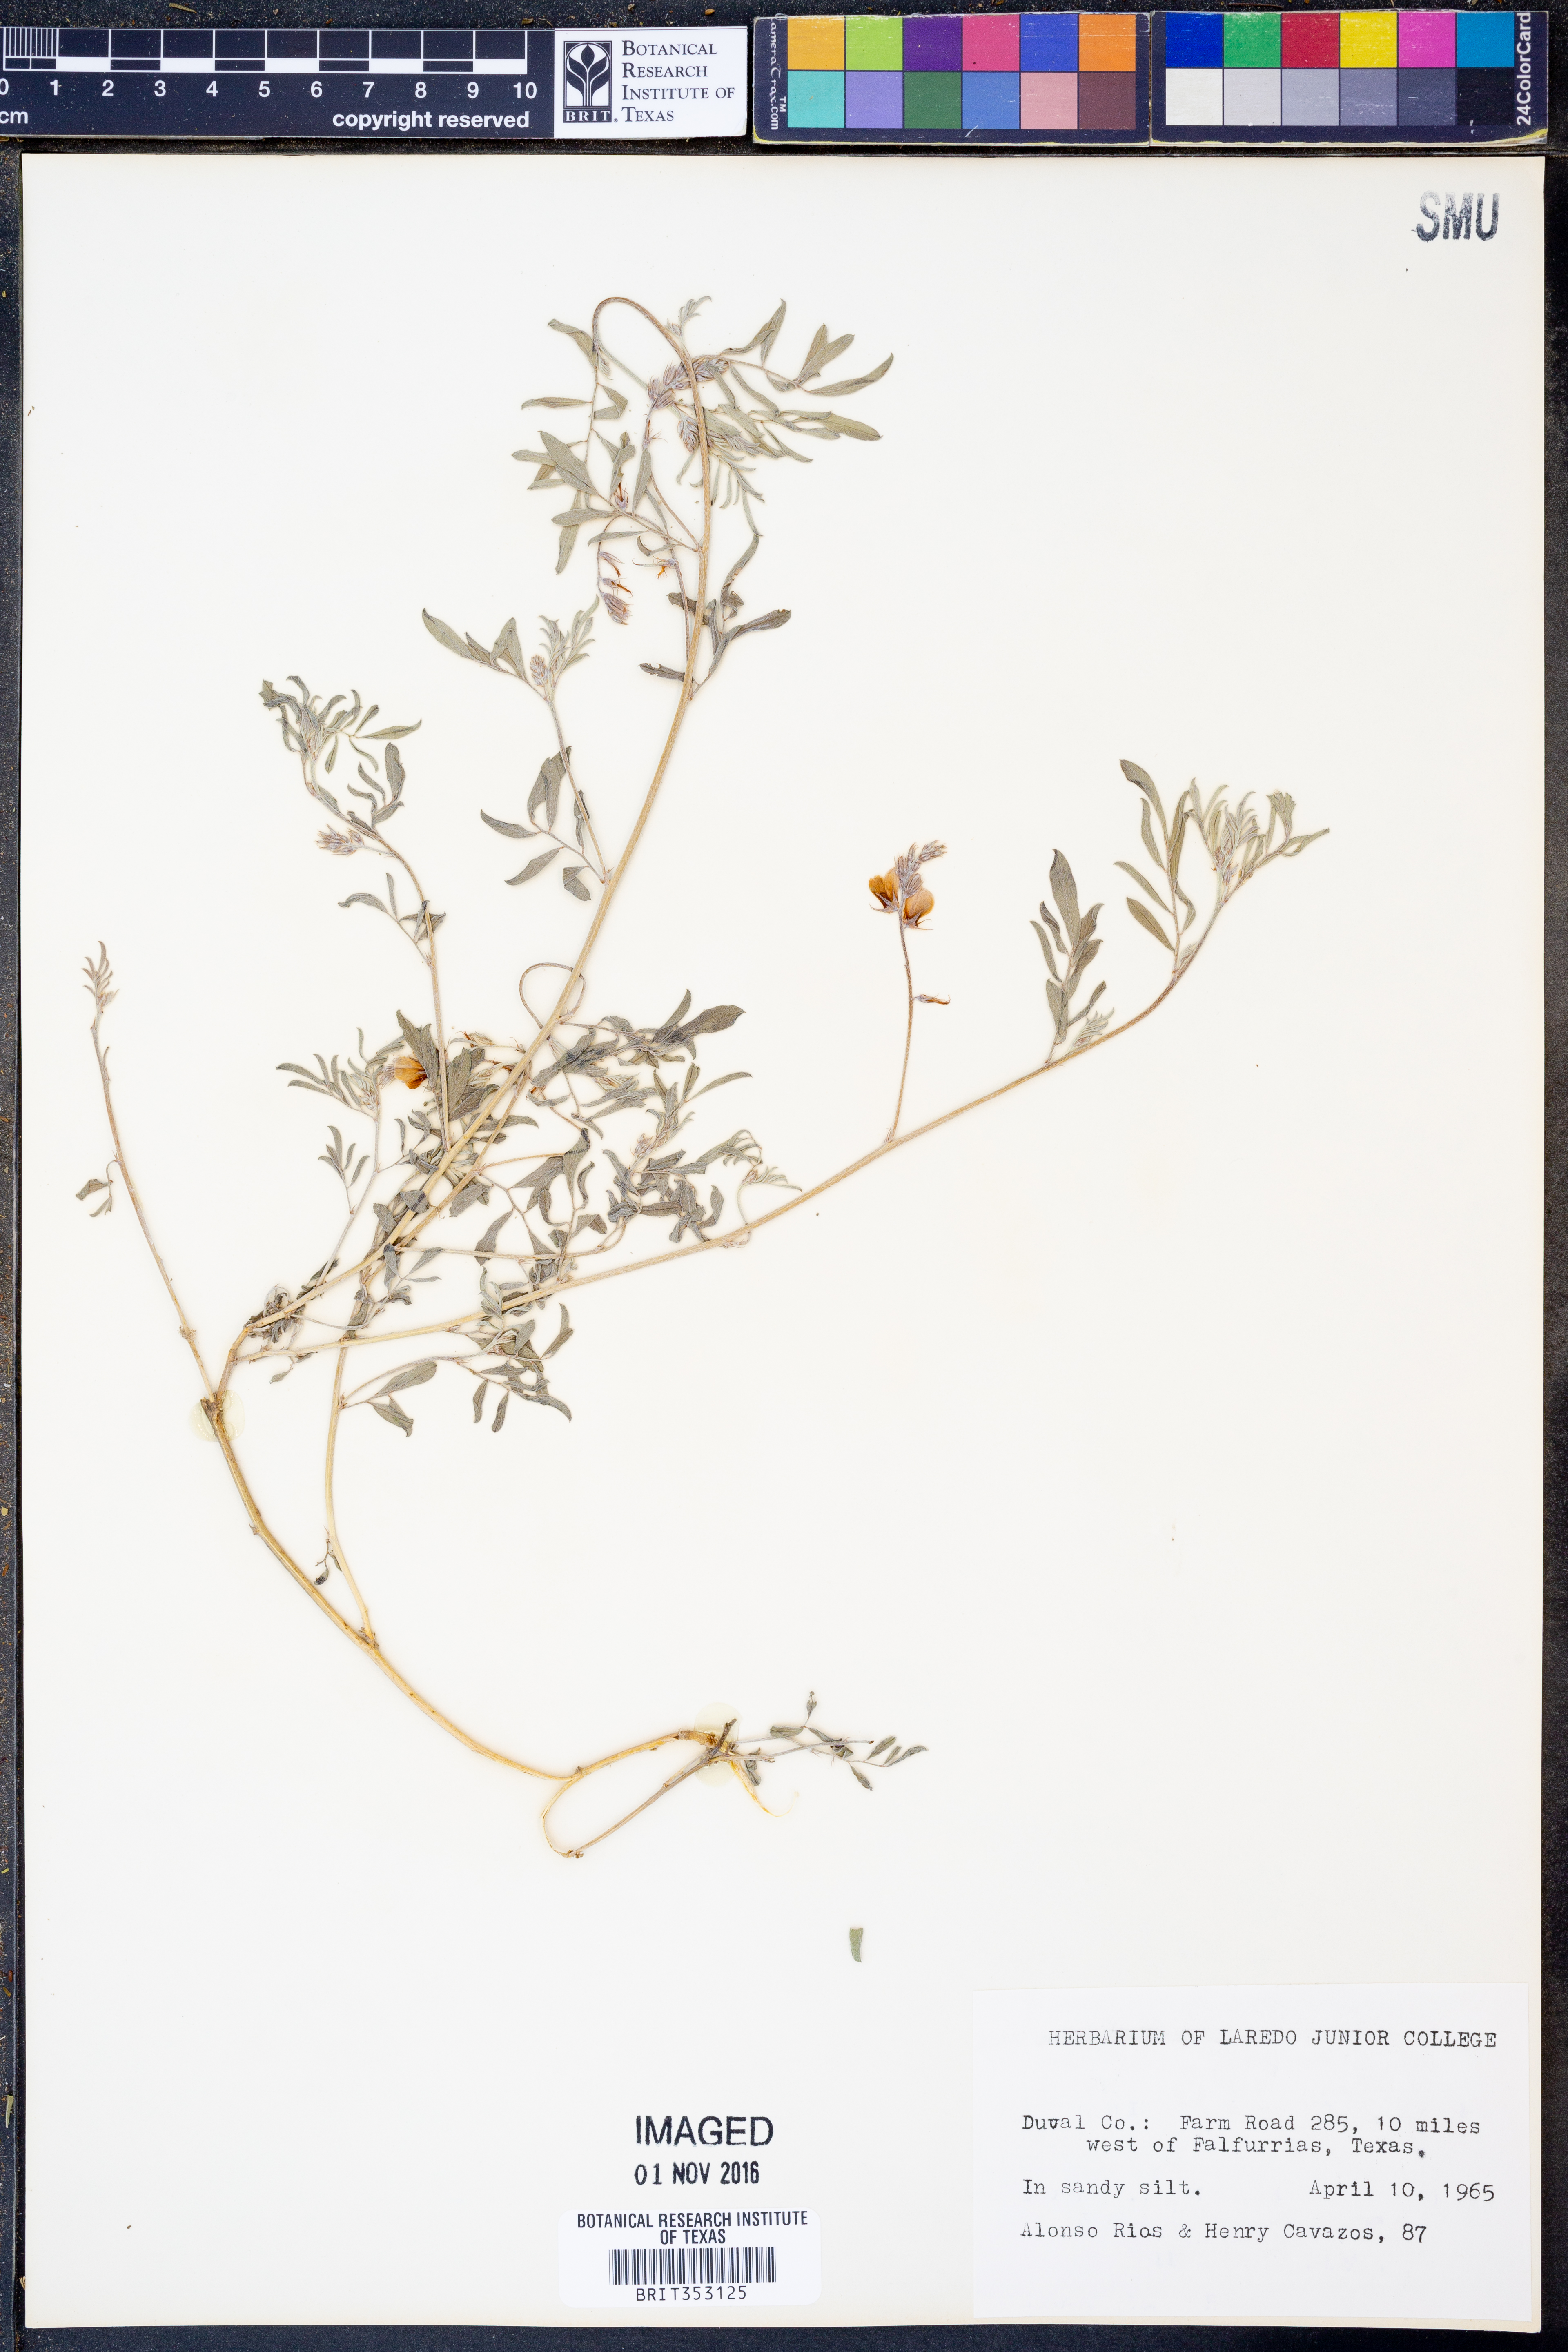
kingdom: Plantae
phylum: Tracheophyta
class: Magnoliopsida
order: Fabales
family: Fabaceae
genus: Indigofera
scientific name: Indigofera miniata
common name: Coast indigo
